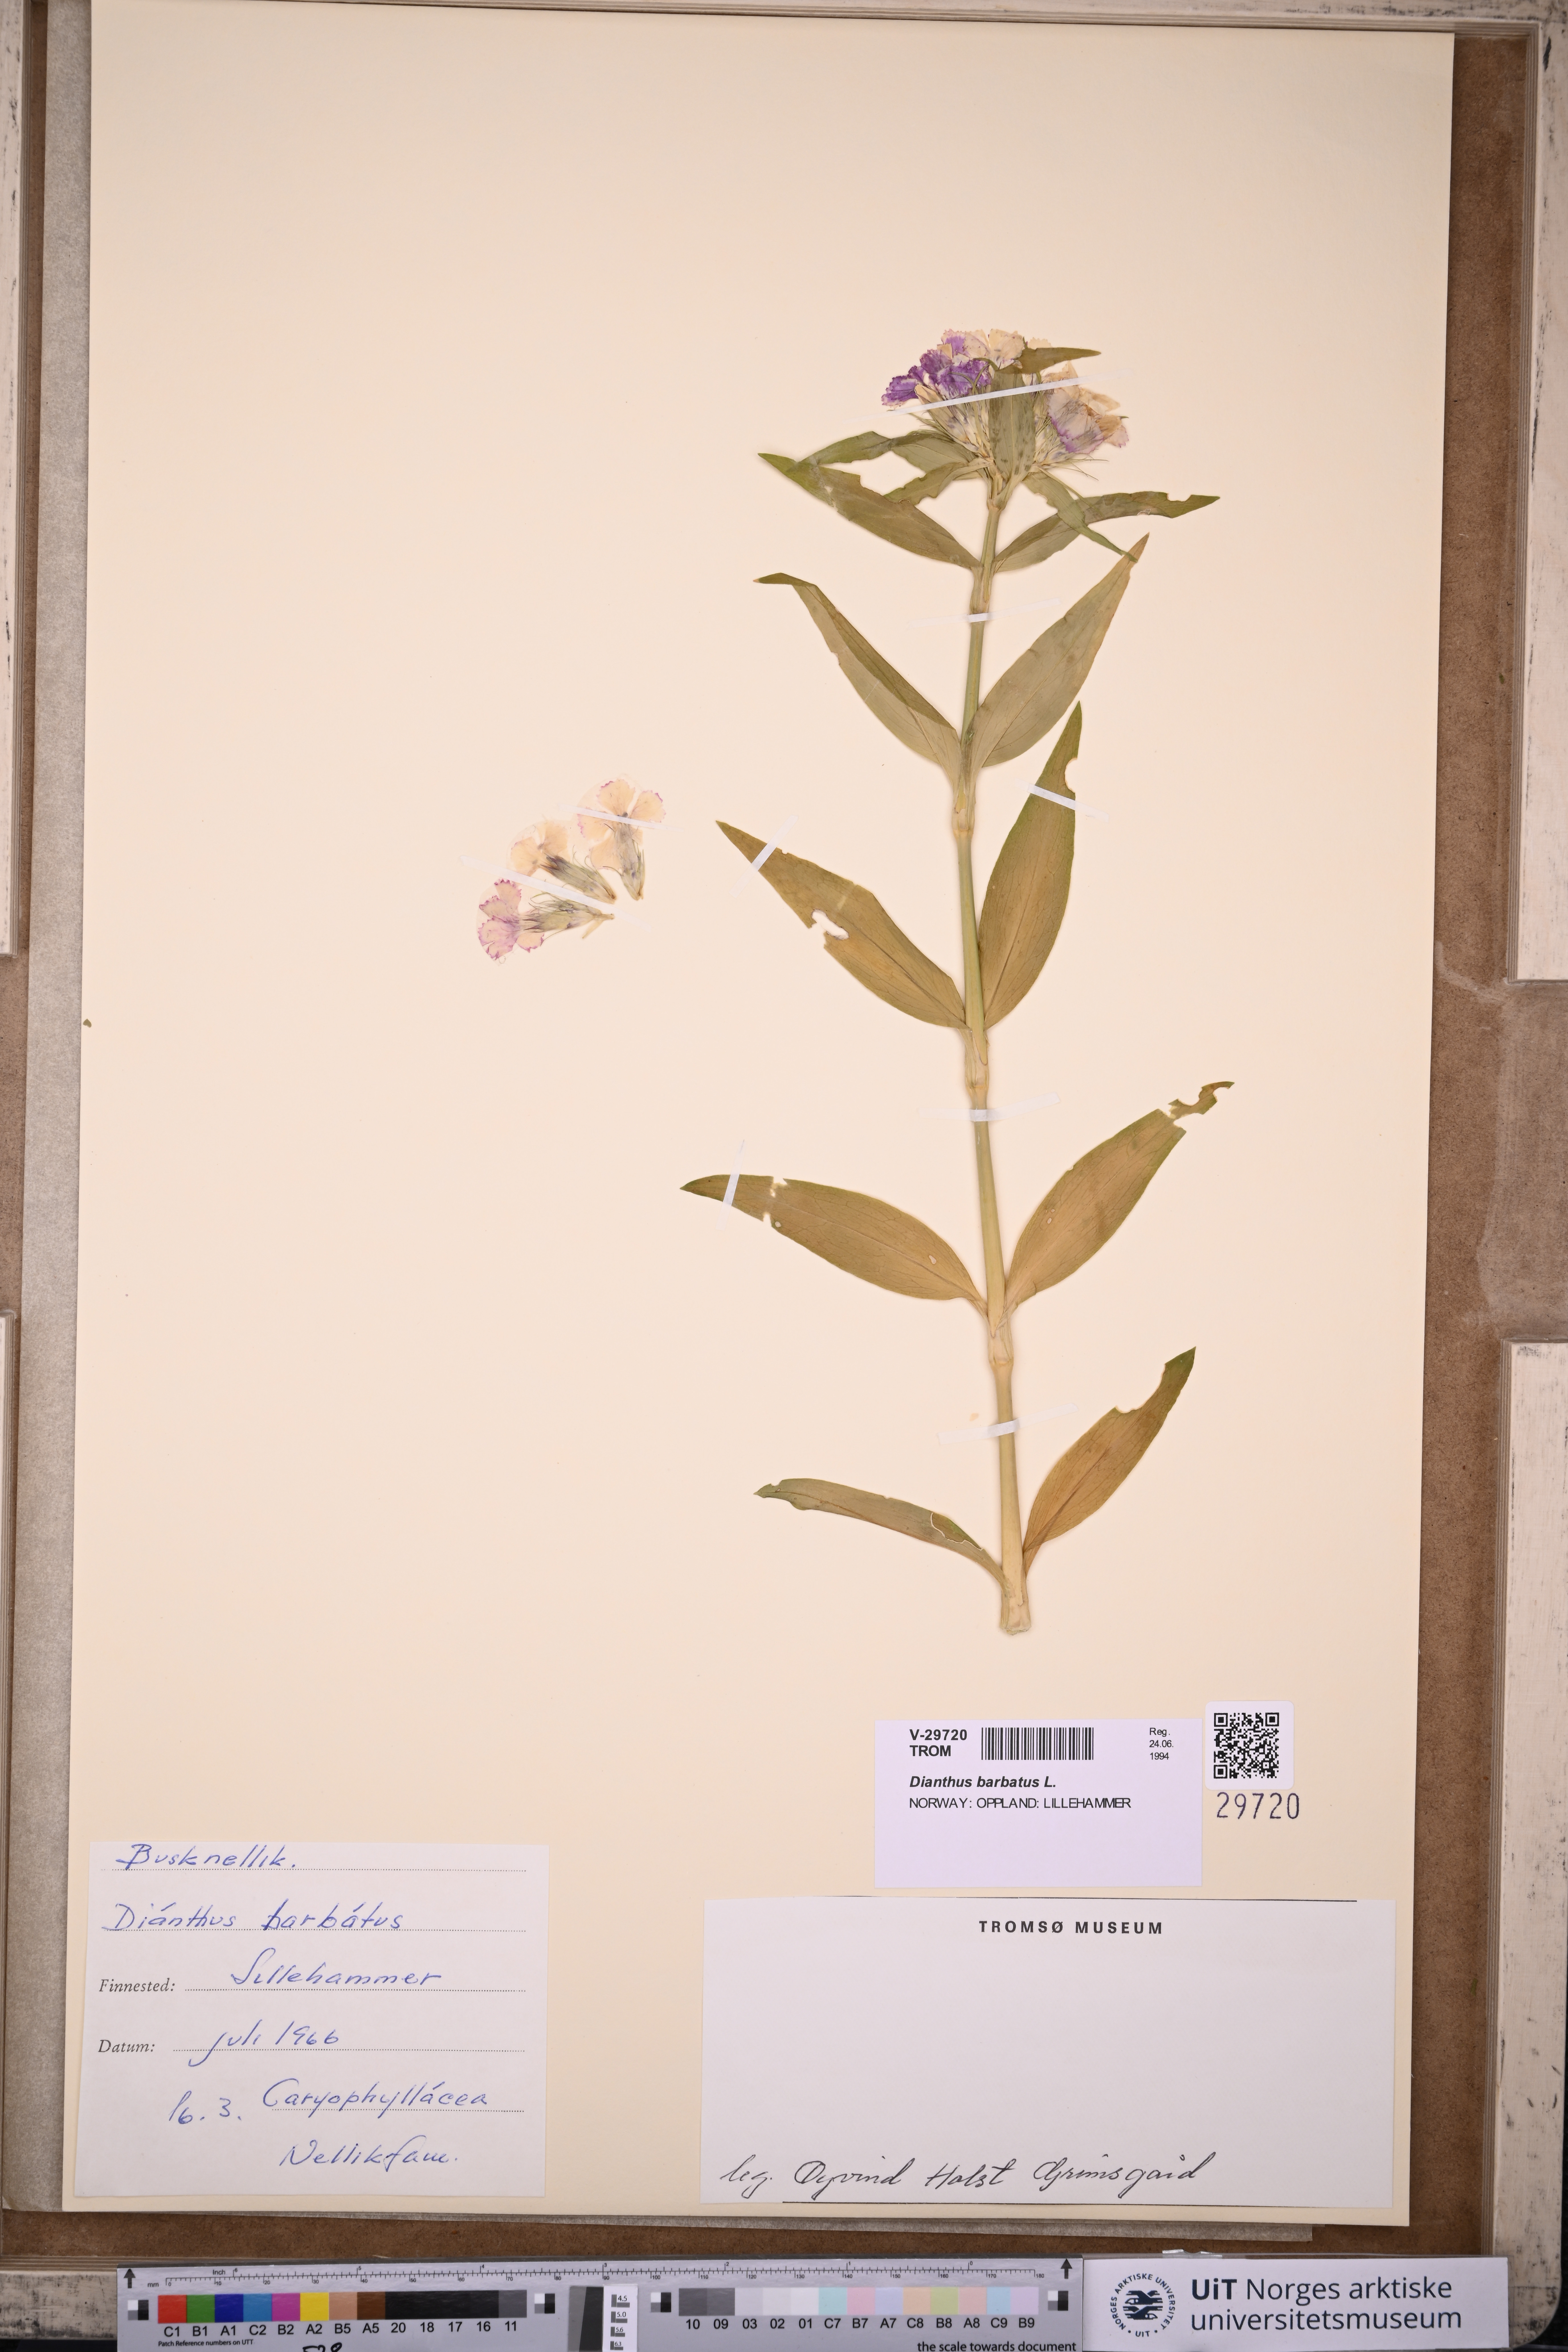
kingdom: Plantae
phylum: Tracheophyta
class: Magnoliopsida
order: Caryophyllales
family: Caryophyllaceae
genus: Dianthus
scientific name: Dianthus barbatus
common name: Sweet-william
